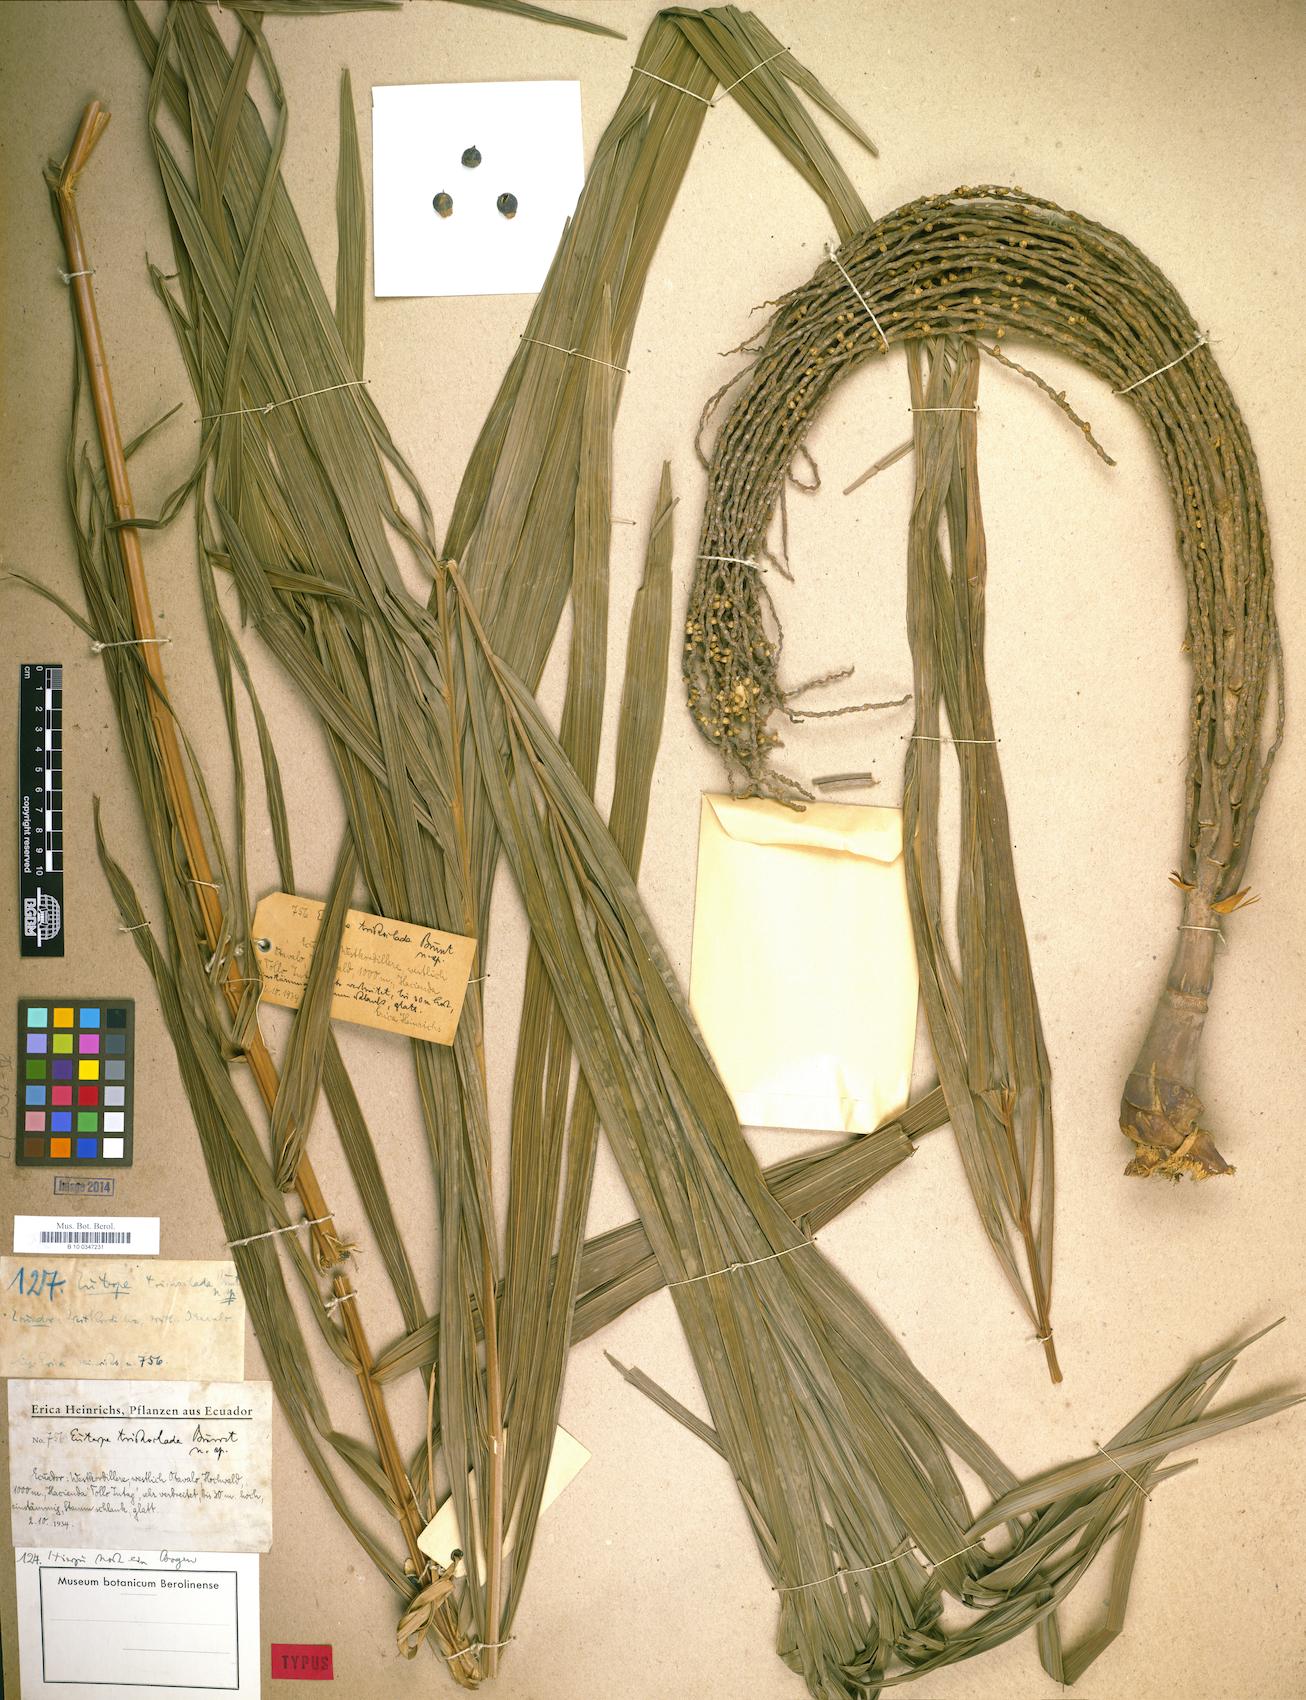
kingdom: Plantae
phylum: Tracheophyta
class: Liliopsida
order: Arecales
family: Arecaceae
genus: Prestoea
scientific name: Prestoea acuminata
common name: Sierran palm
